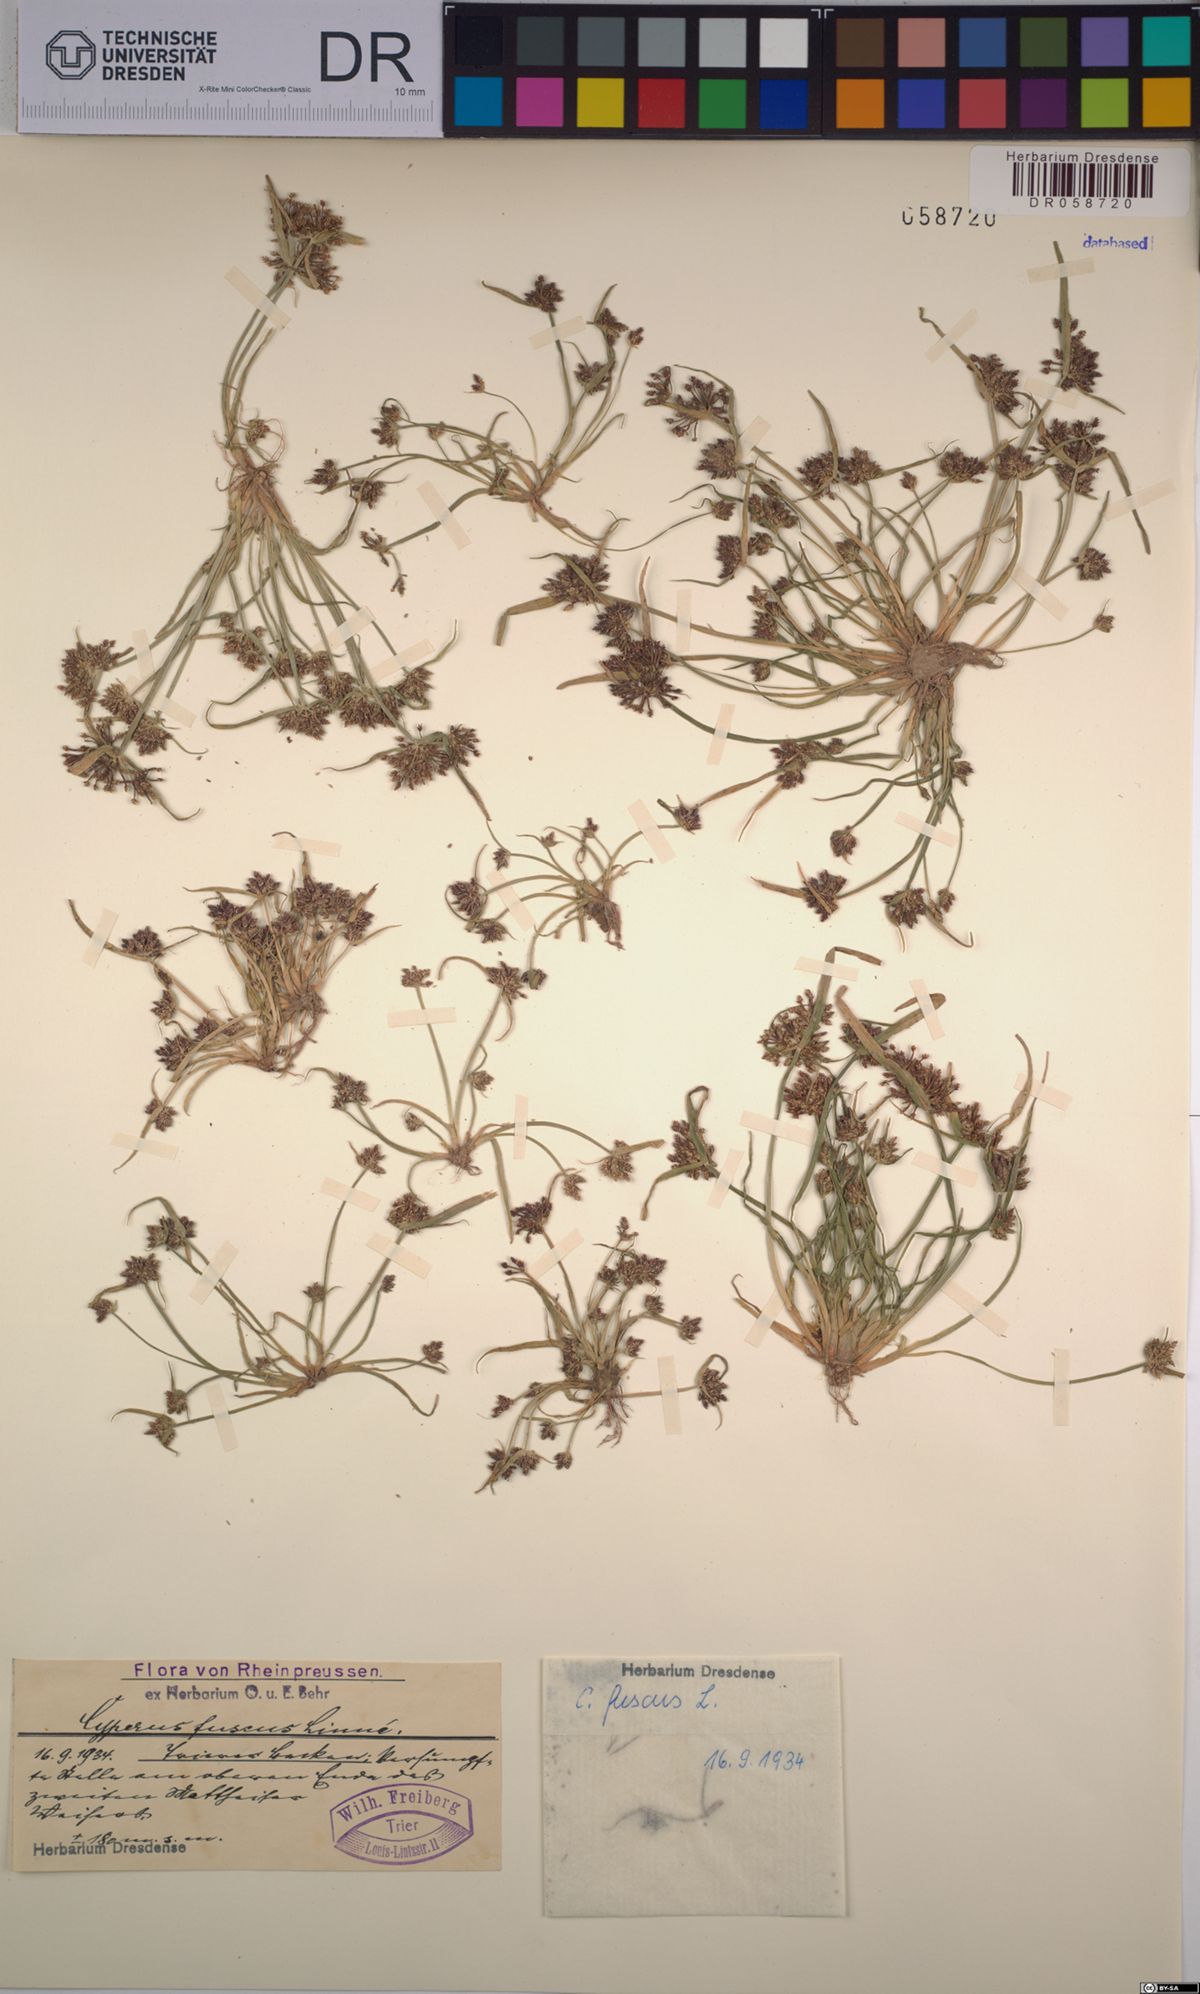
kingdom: Plantae
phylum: Tracheophyta
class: Liliopsida
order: Poales
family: Cyperaceae
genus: Cyperus
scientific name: Cyperus fuscus
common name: Brown galingale
